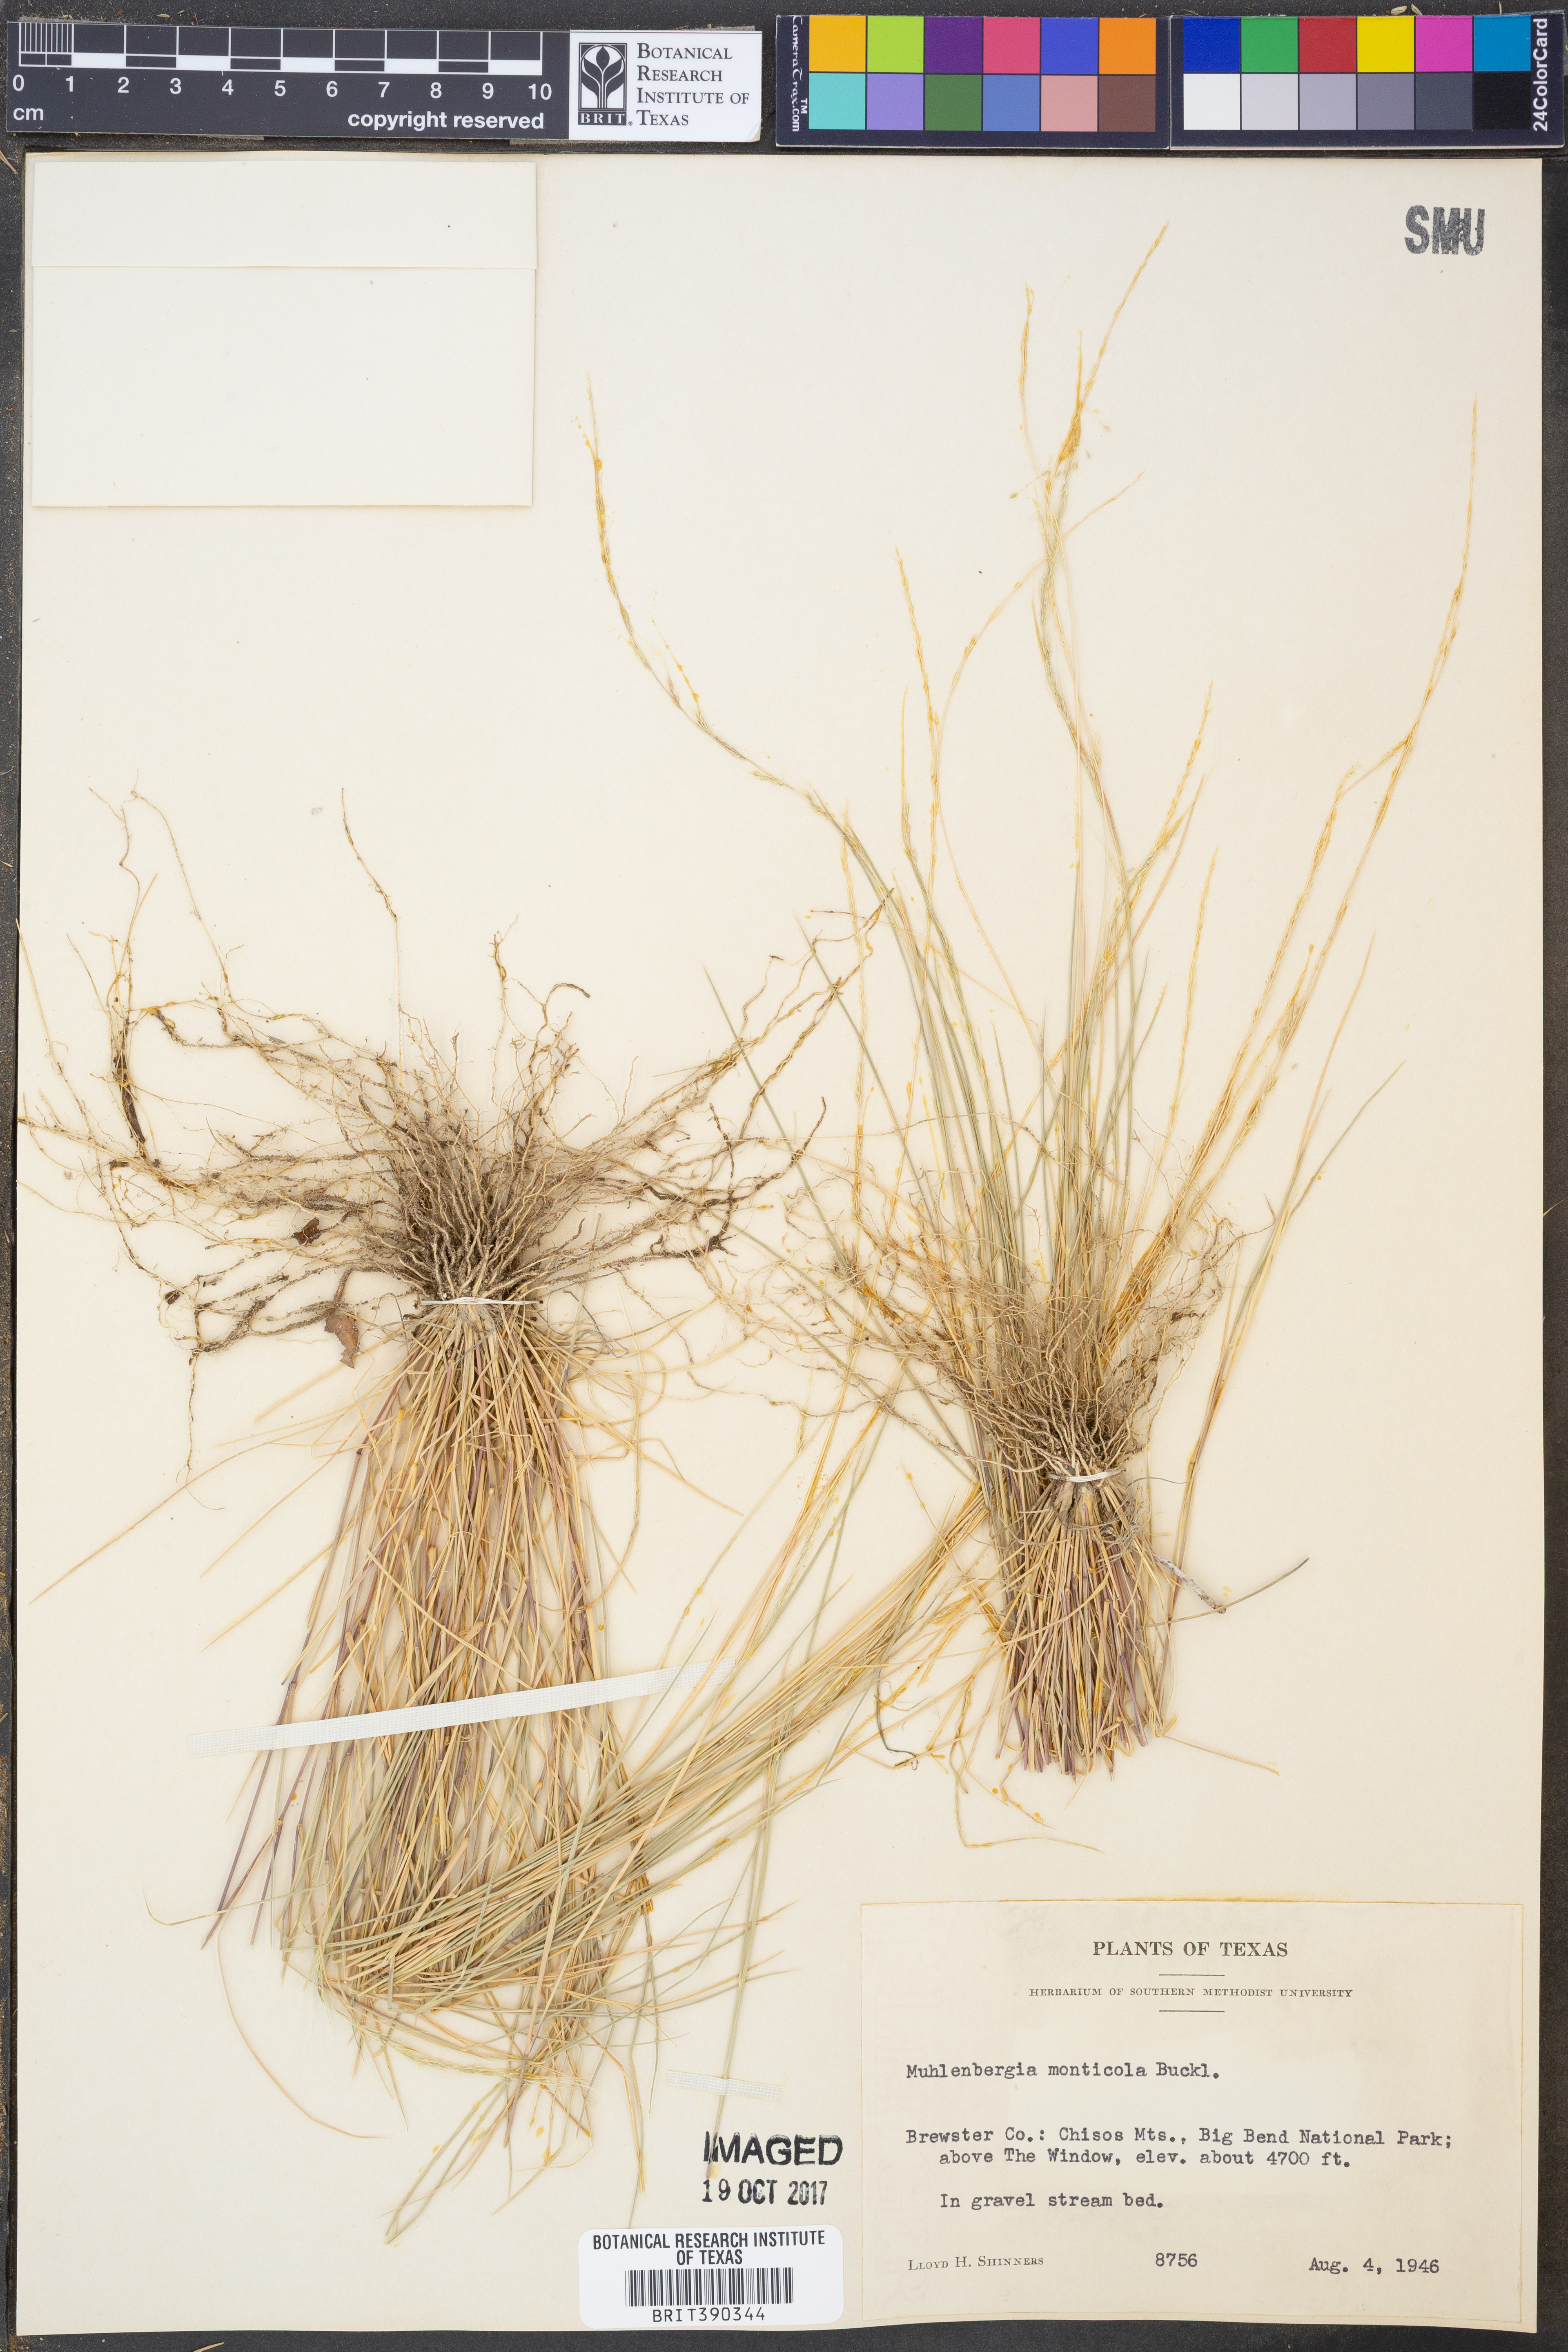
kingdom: Plantae
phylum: Tracheophyta
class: Liliopsida
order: Poales
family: Poaceae
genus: Muhlenbergia
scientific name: Muhlenbergia tenuifolia
